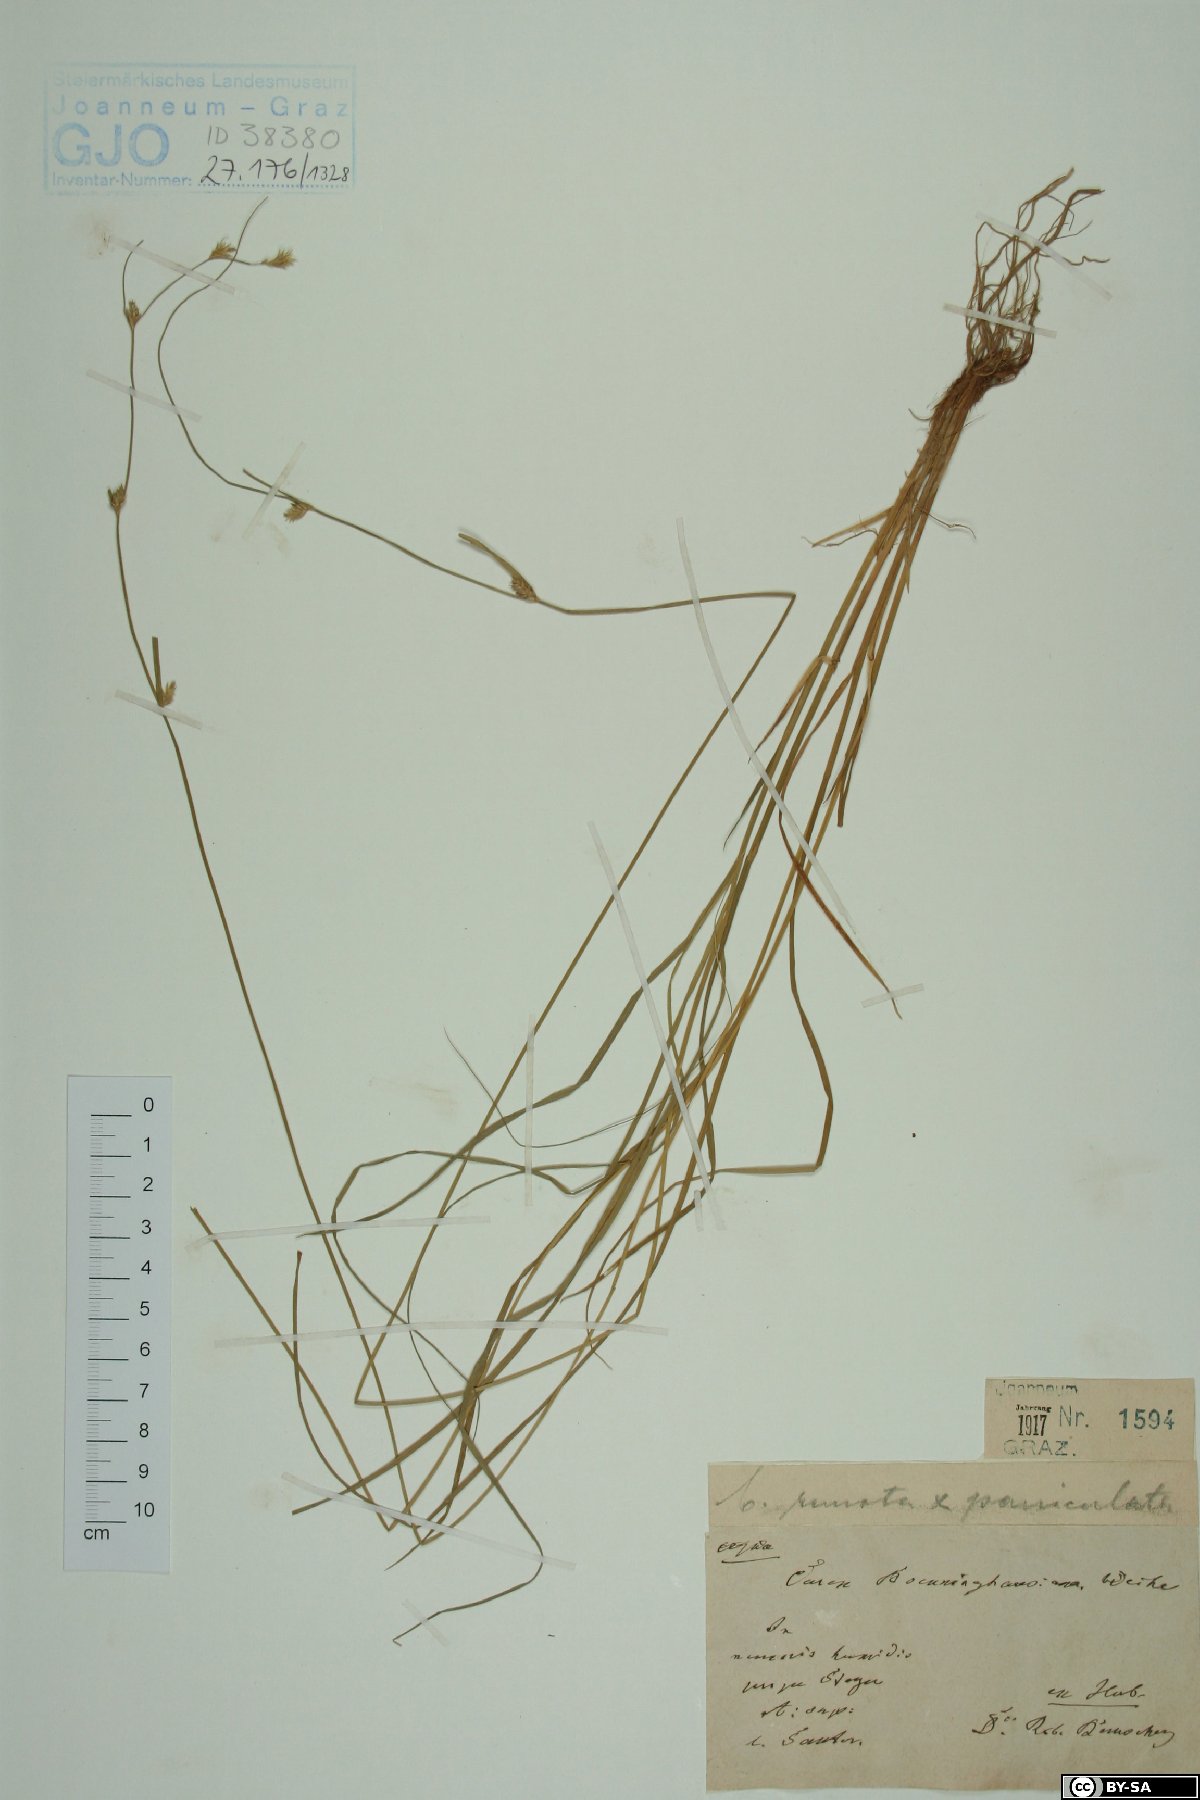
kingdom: Plantae
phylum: Tracheophyta
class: Liliopsida
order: Poales
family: Cyperaceae
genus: Carex
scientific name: Carex boenninghausiana
